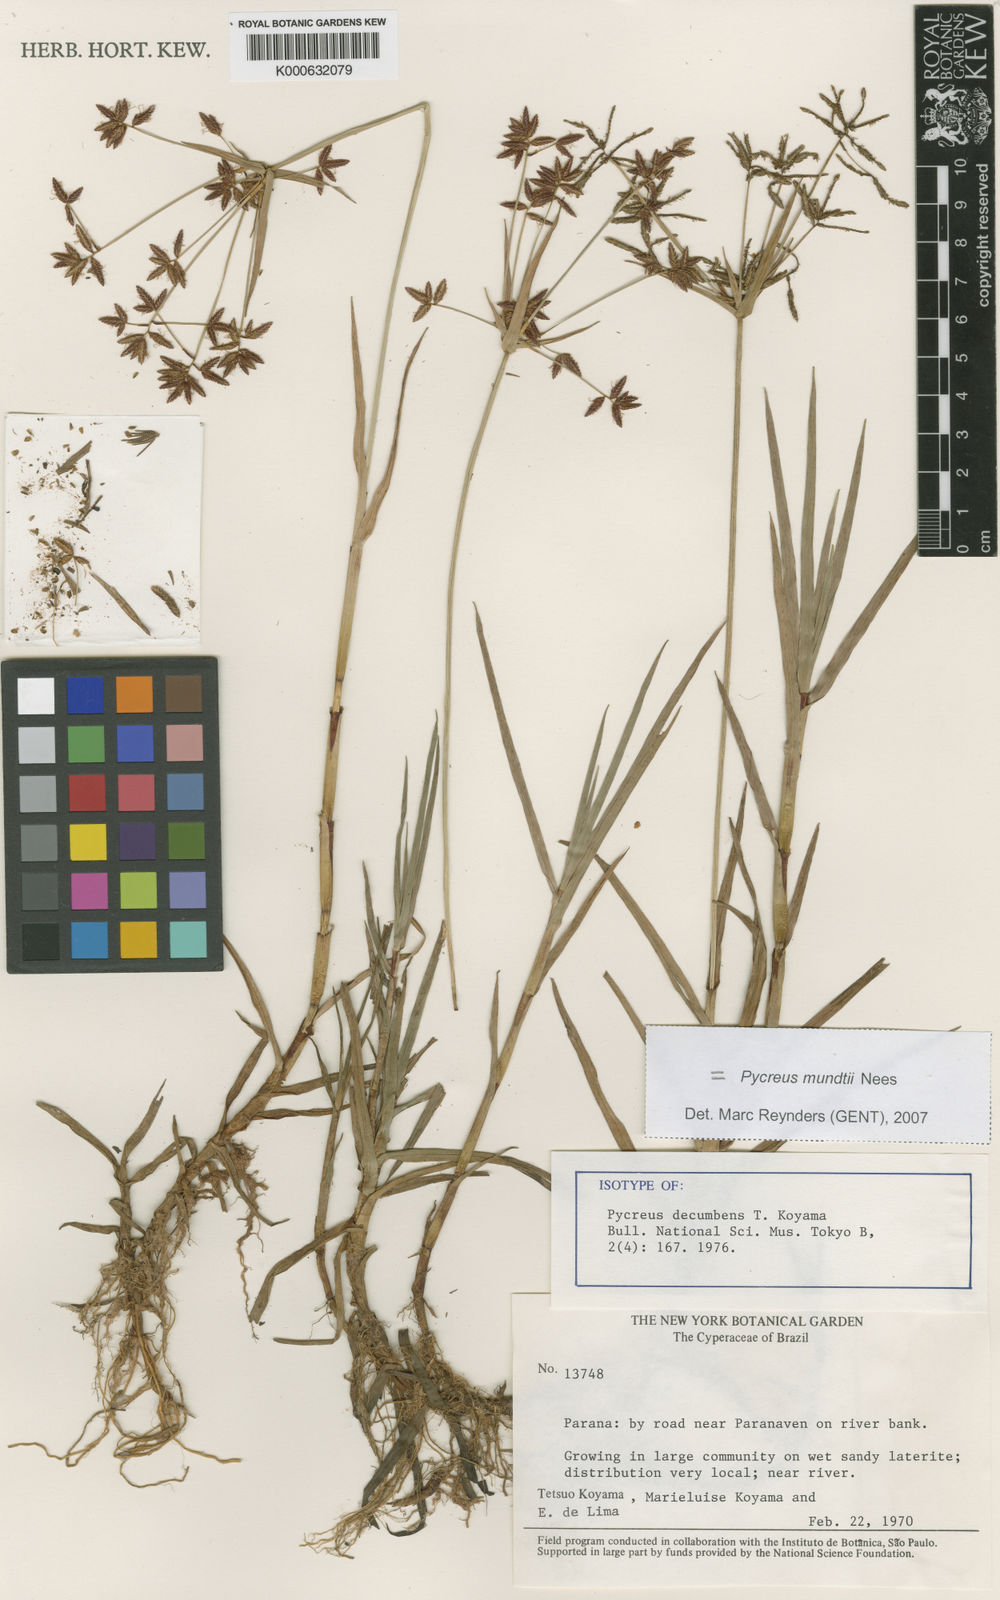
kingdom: Plantae
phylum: Tracheophyta
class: Liliopsida
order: Poales
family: Cyperaceae
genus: Cyperus
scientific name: Cyperus mundii
